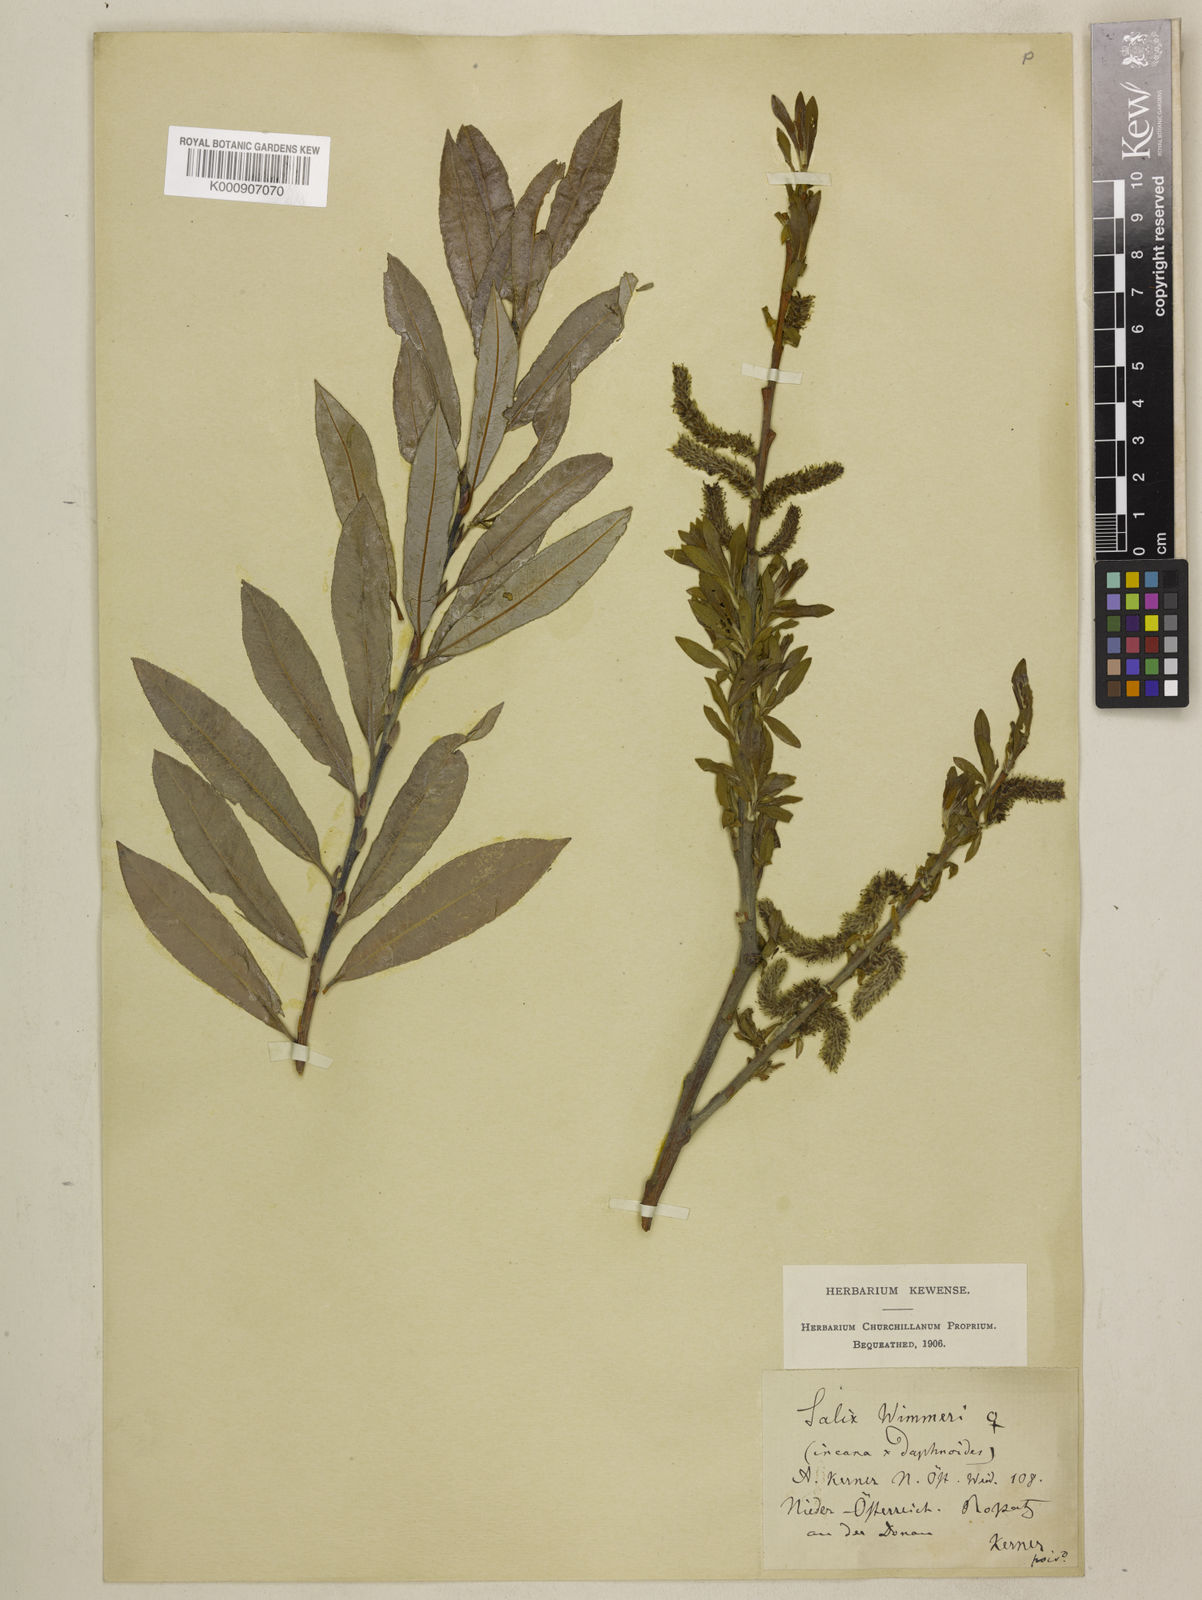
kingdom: Plantae
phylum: Tracheophyta
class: Magnoliopsida
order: Malpighiales
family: Salicaceae
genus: Salix
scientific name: Salix daphnoides
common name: European violet-willow
